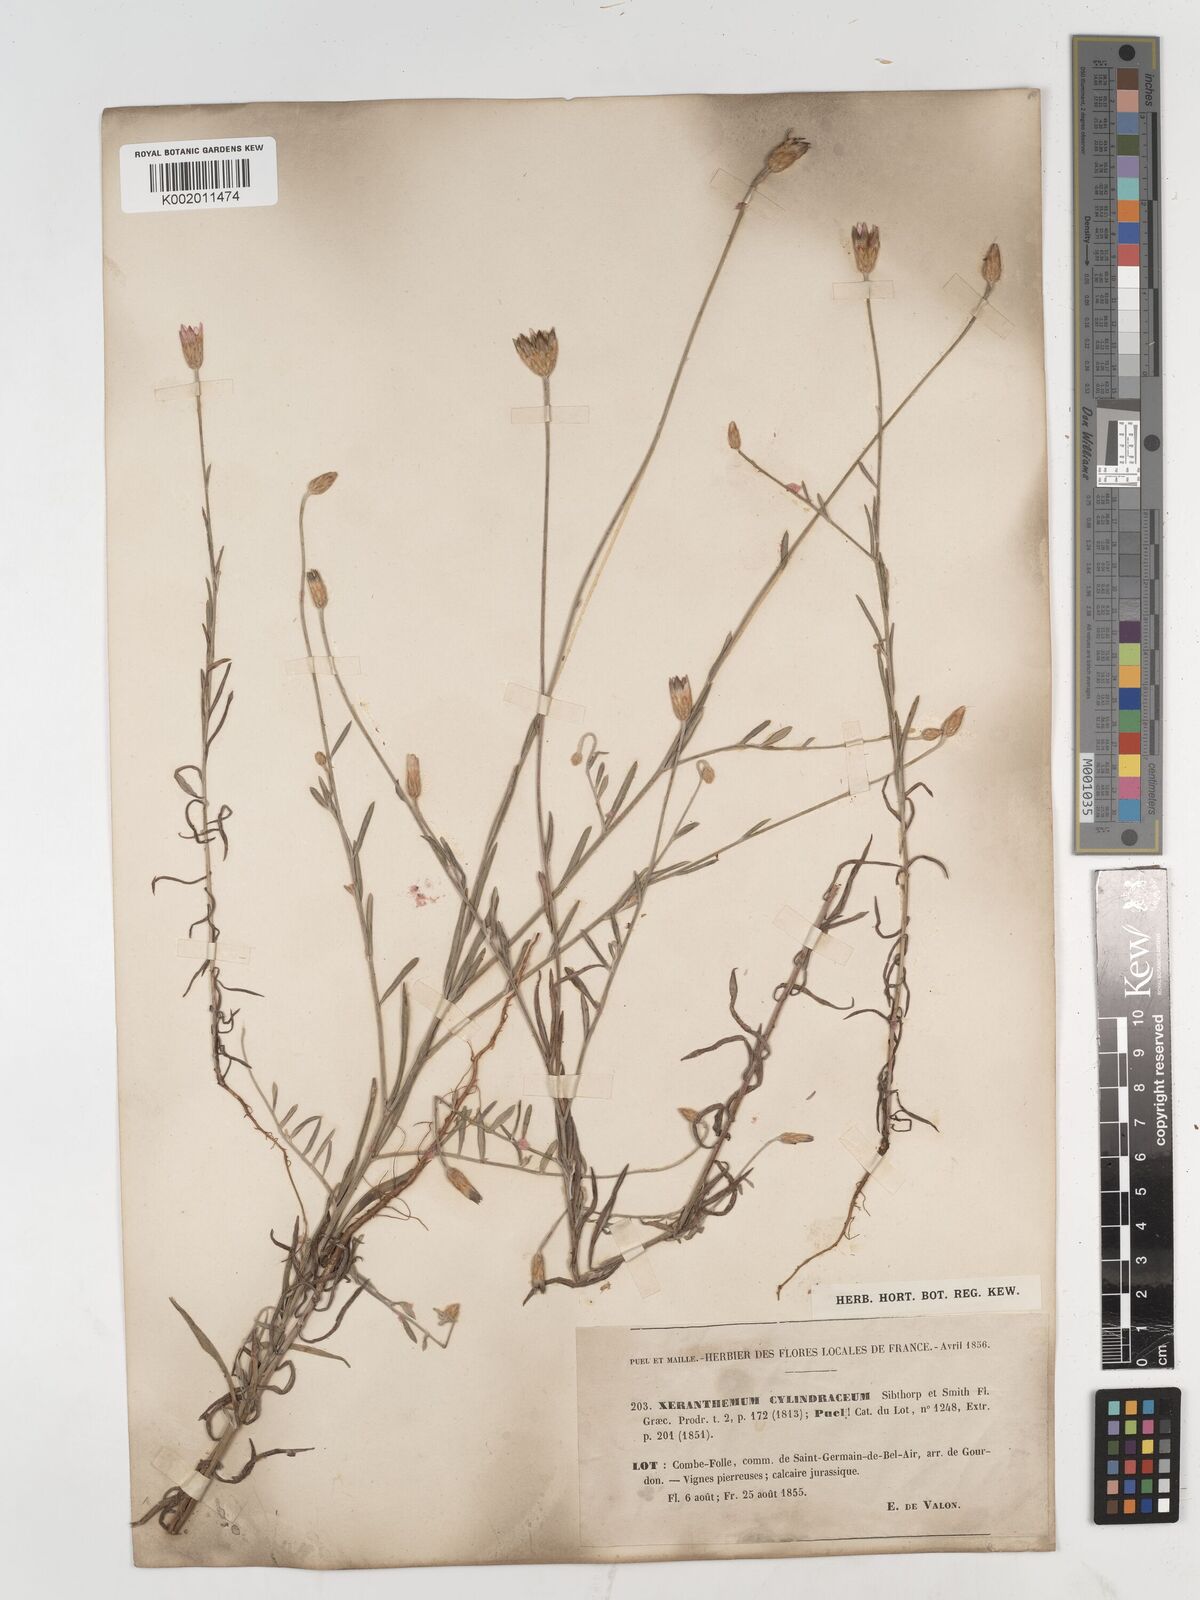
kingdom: Plantae
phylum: Tracheophyta
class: Magnoliopsida
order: Asterales
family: Asteraceae
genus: Xeranthemum
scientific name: Xeranthemum cylindraceum
